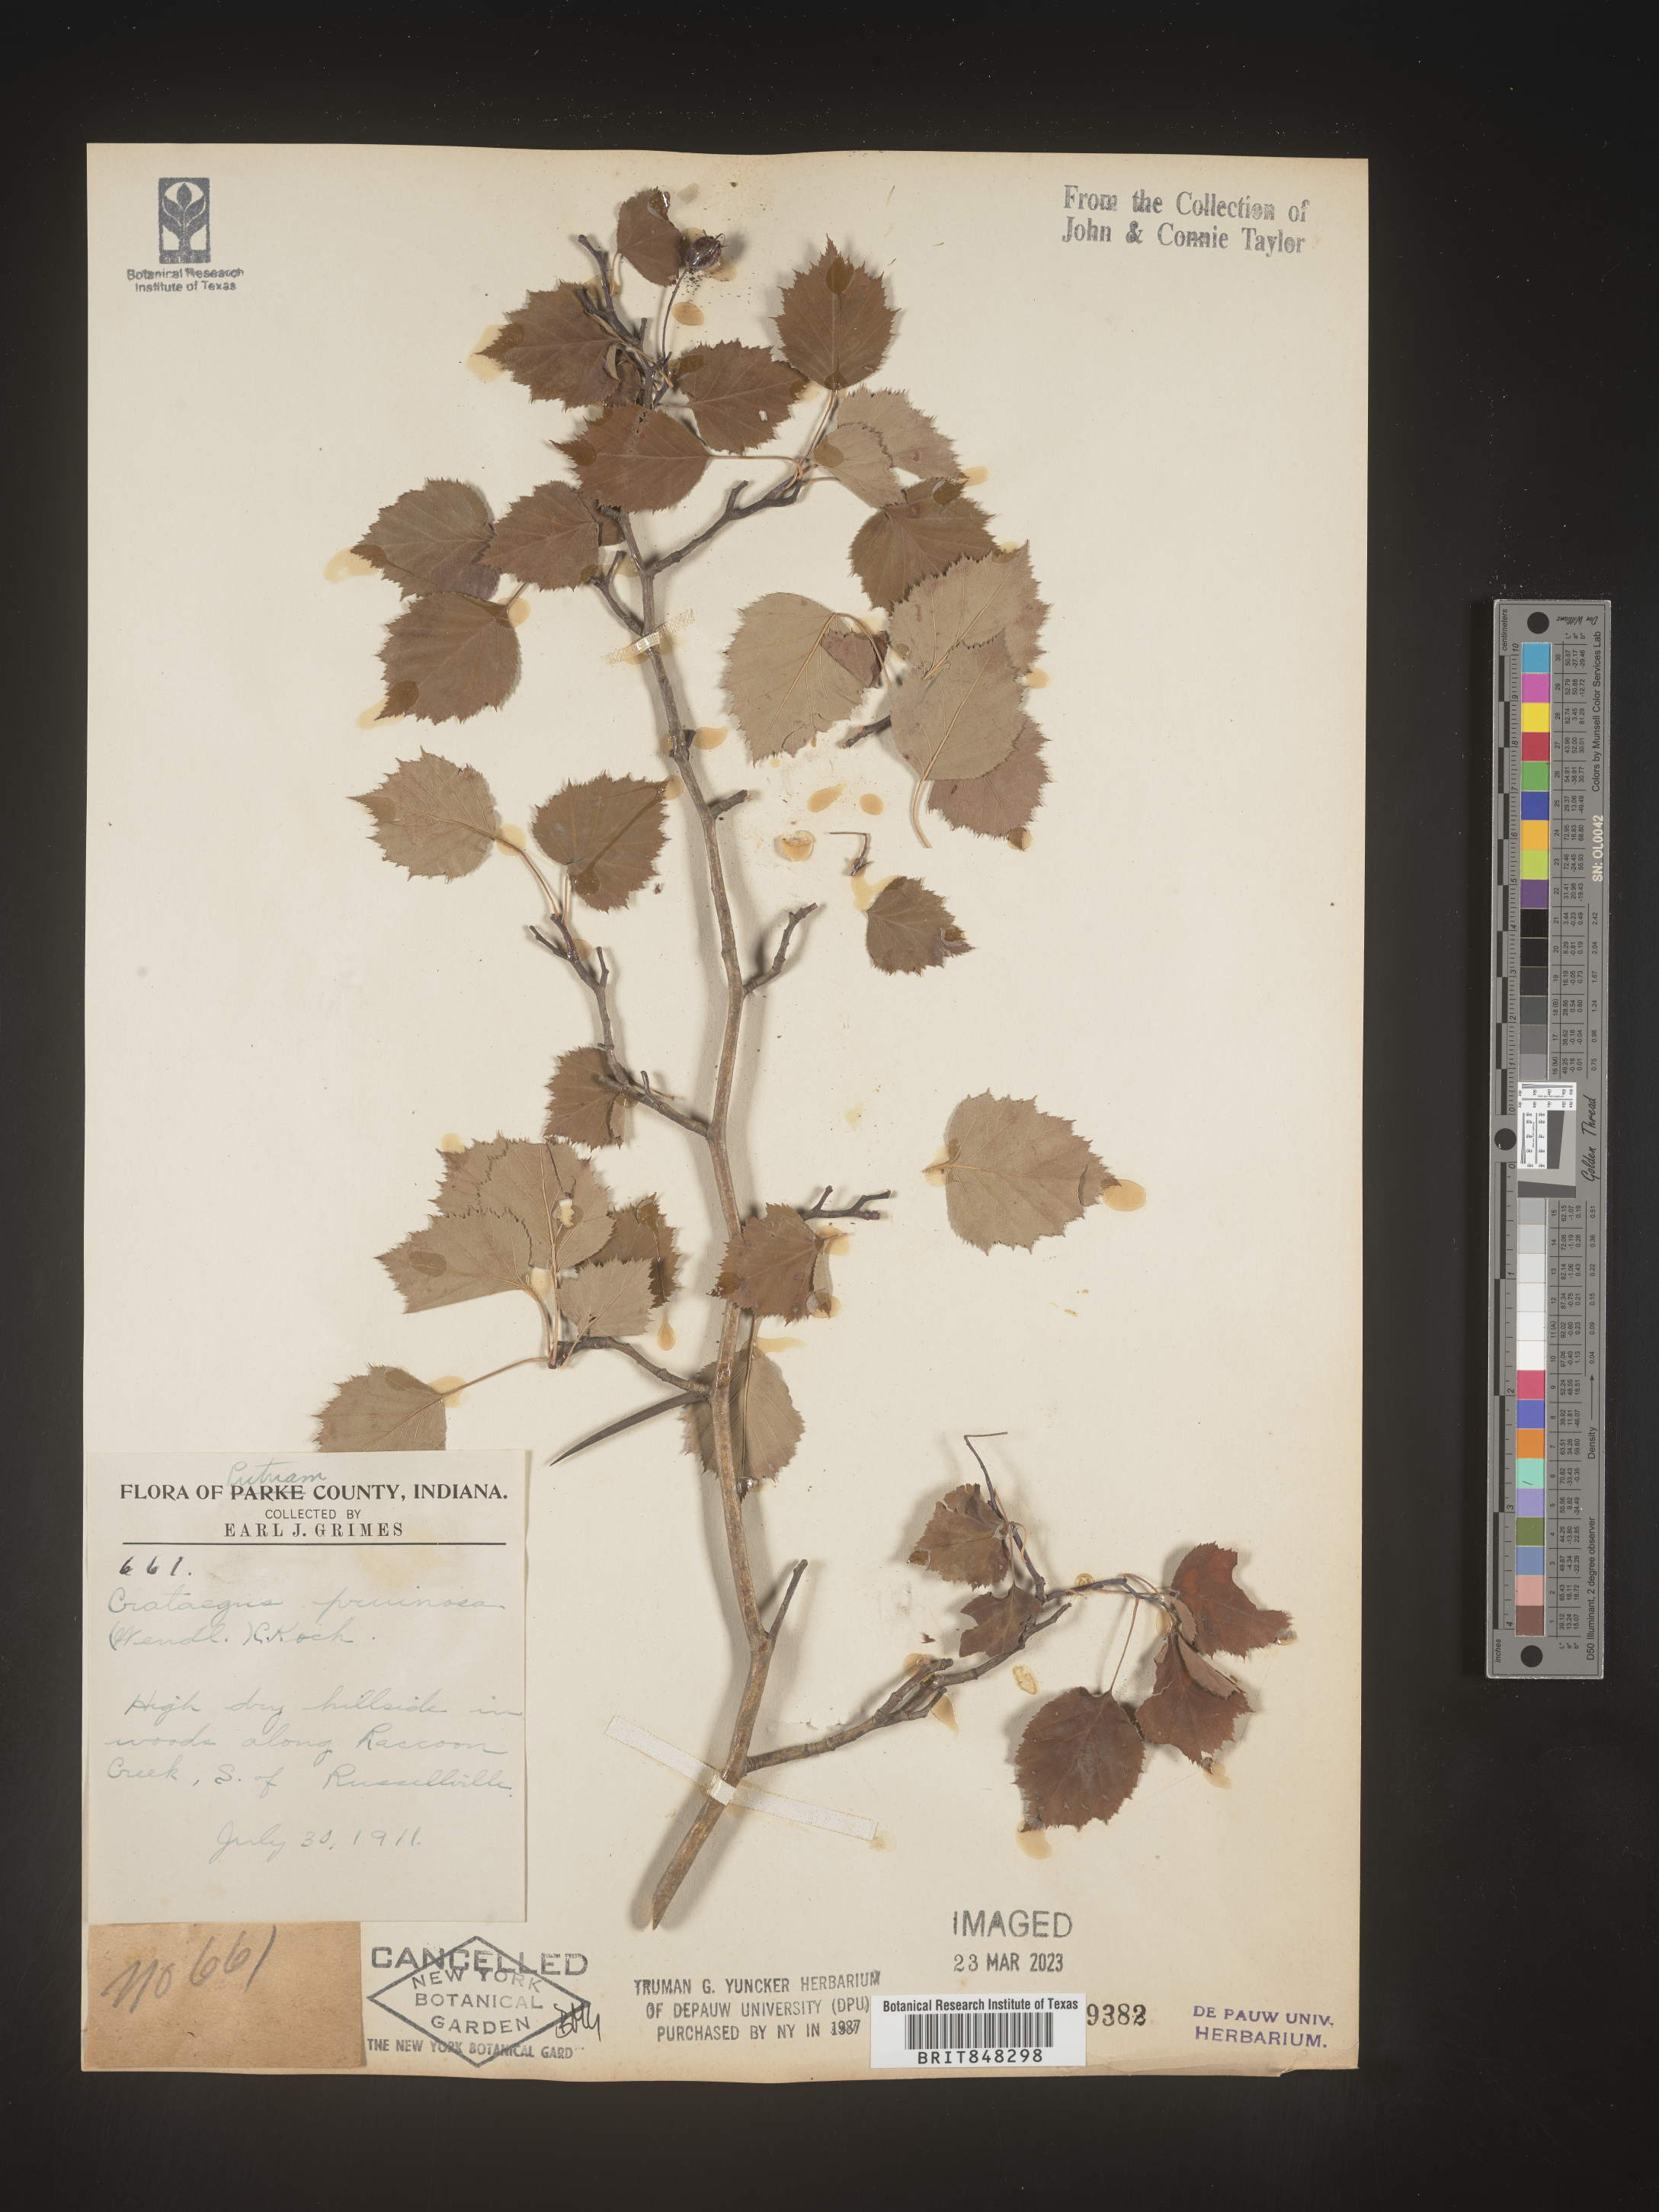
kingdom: Plantae
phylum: Tracheophyta
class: Magnoliopsida
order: Rosales
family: Rosaceae
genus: Crataegus
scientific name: Crataegus pruinosa
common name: Waxy-fruit hawthorn
